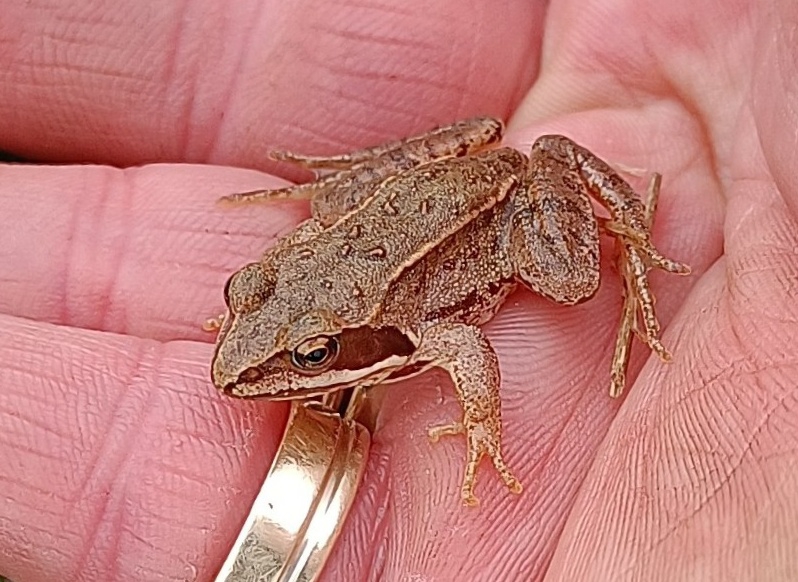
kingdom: Animalia
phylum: Chordata
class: Amphibia
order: Anura
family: Ranidae
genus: Rana
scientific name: Rana arvalis
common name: Spidssnudet frø
